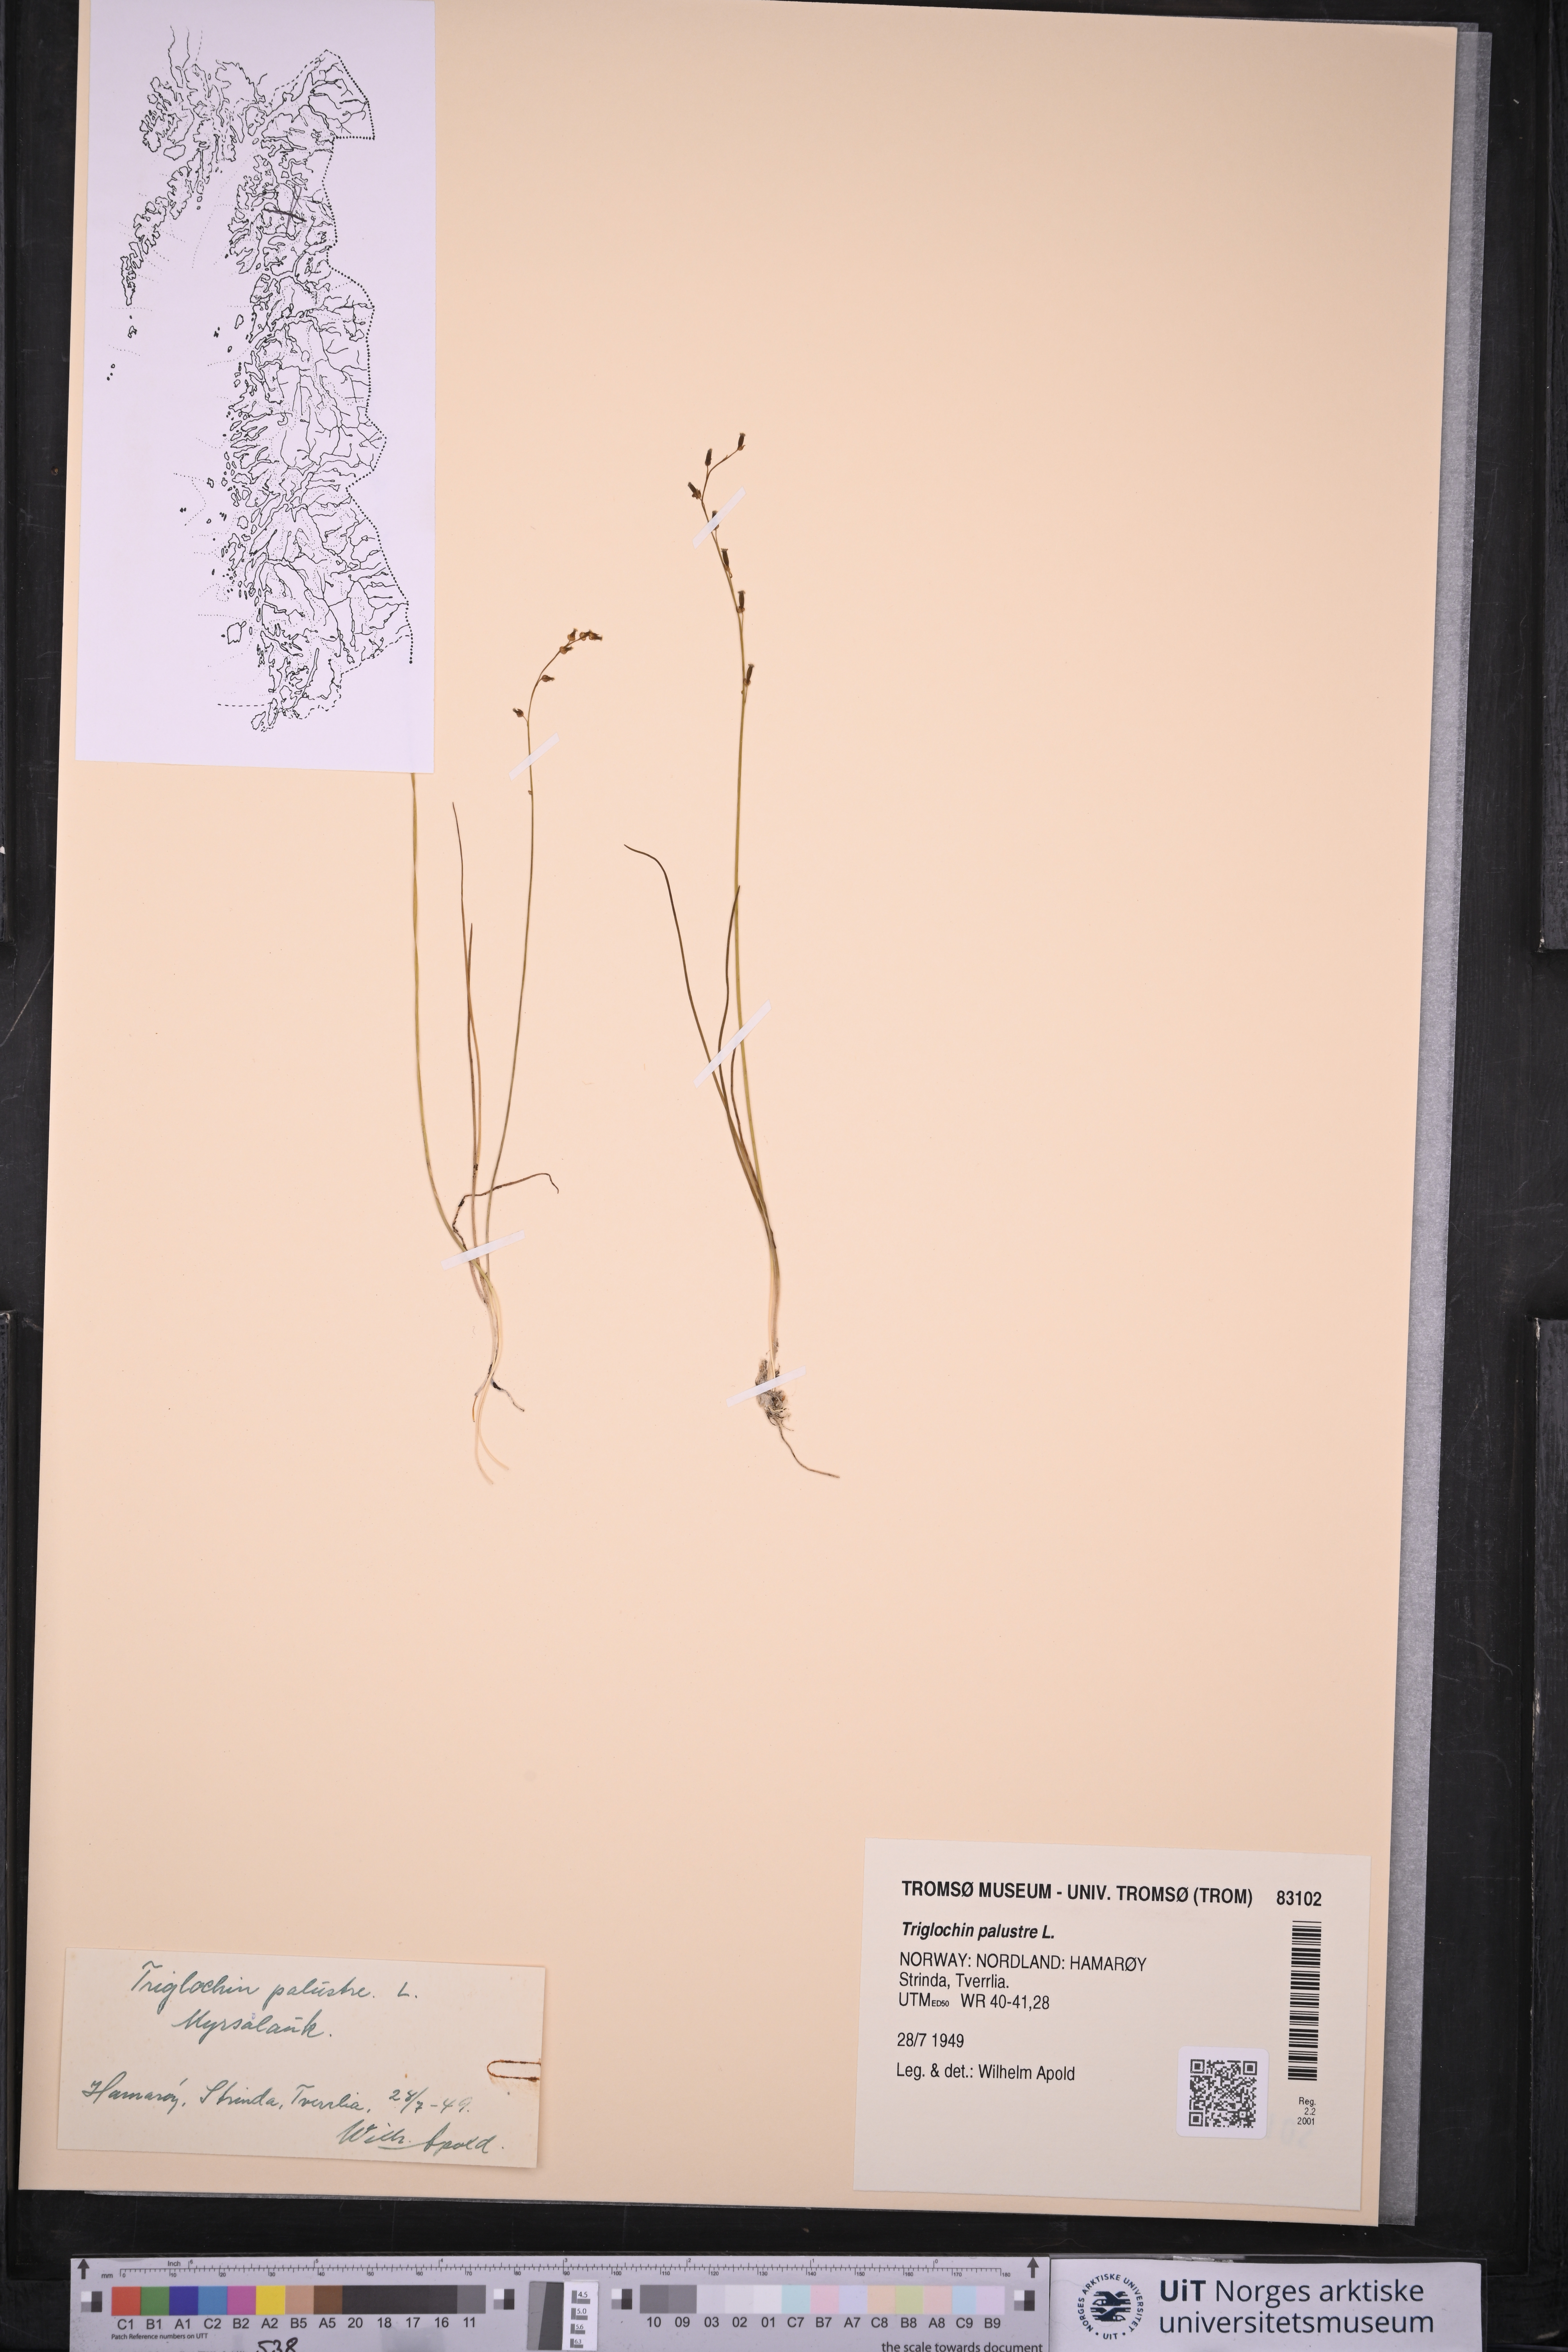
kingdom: Plantae
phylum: Tracheophyta
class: Liliopsida
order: Alismatales
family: Juncaginaceae
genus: Triglochin
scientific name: Triglochin palustris
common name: Marsh arrowgrass
